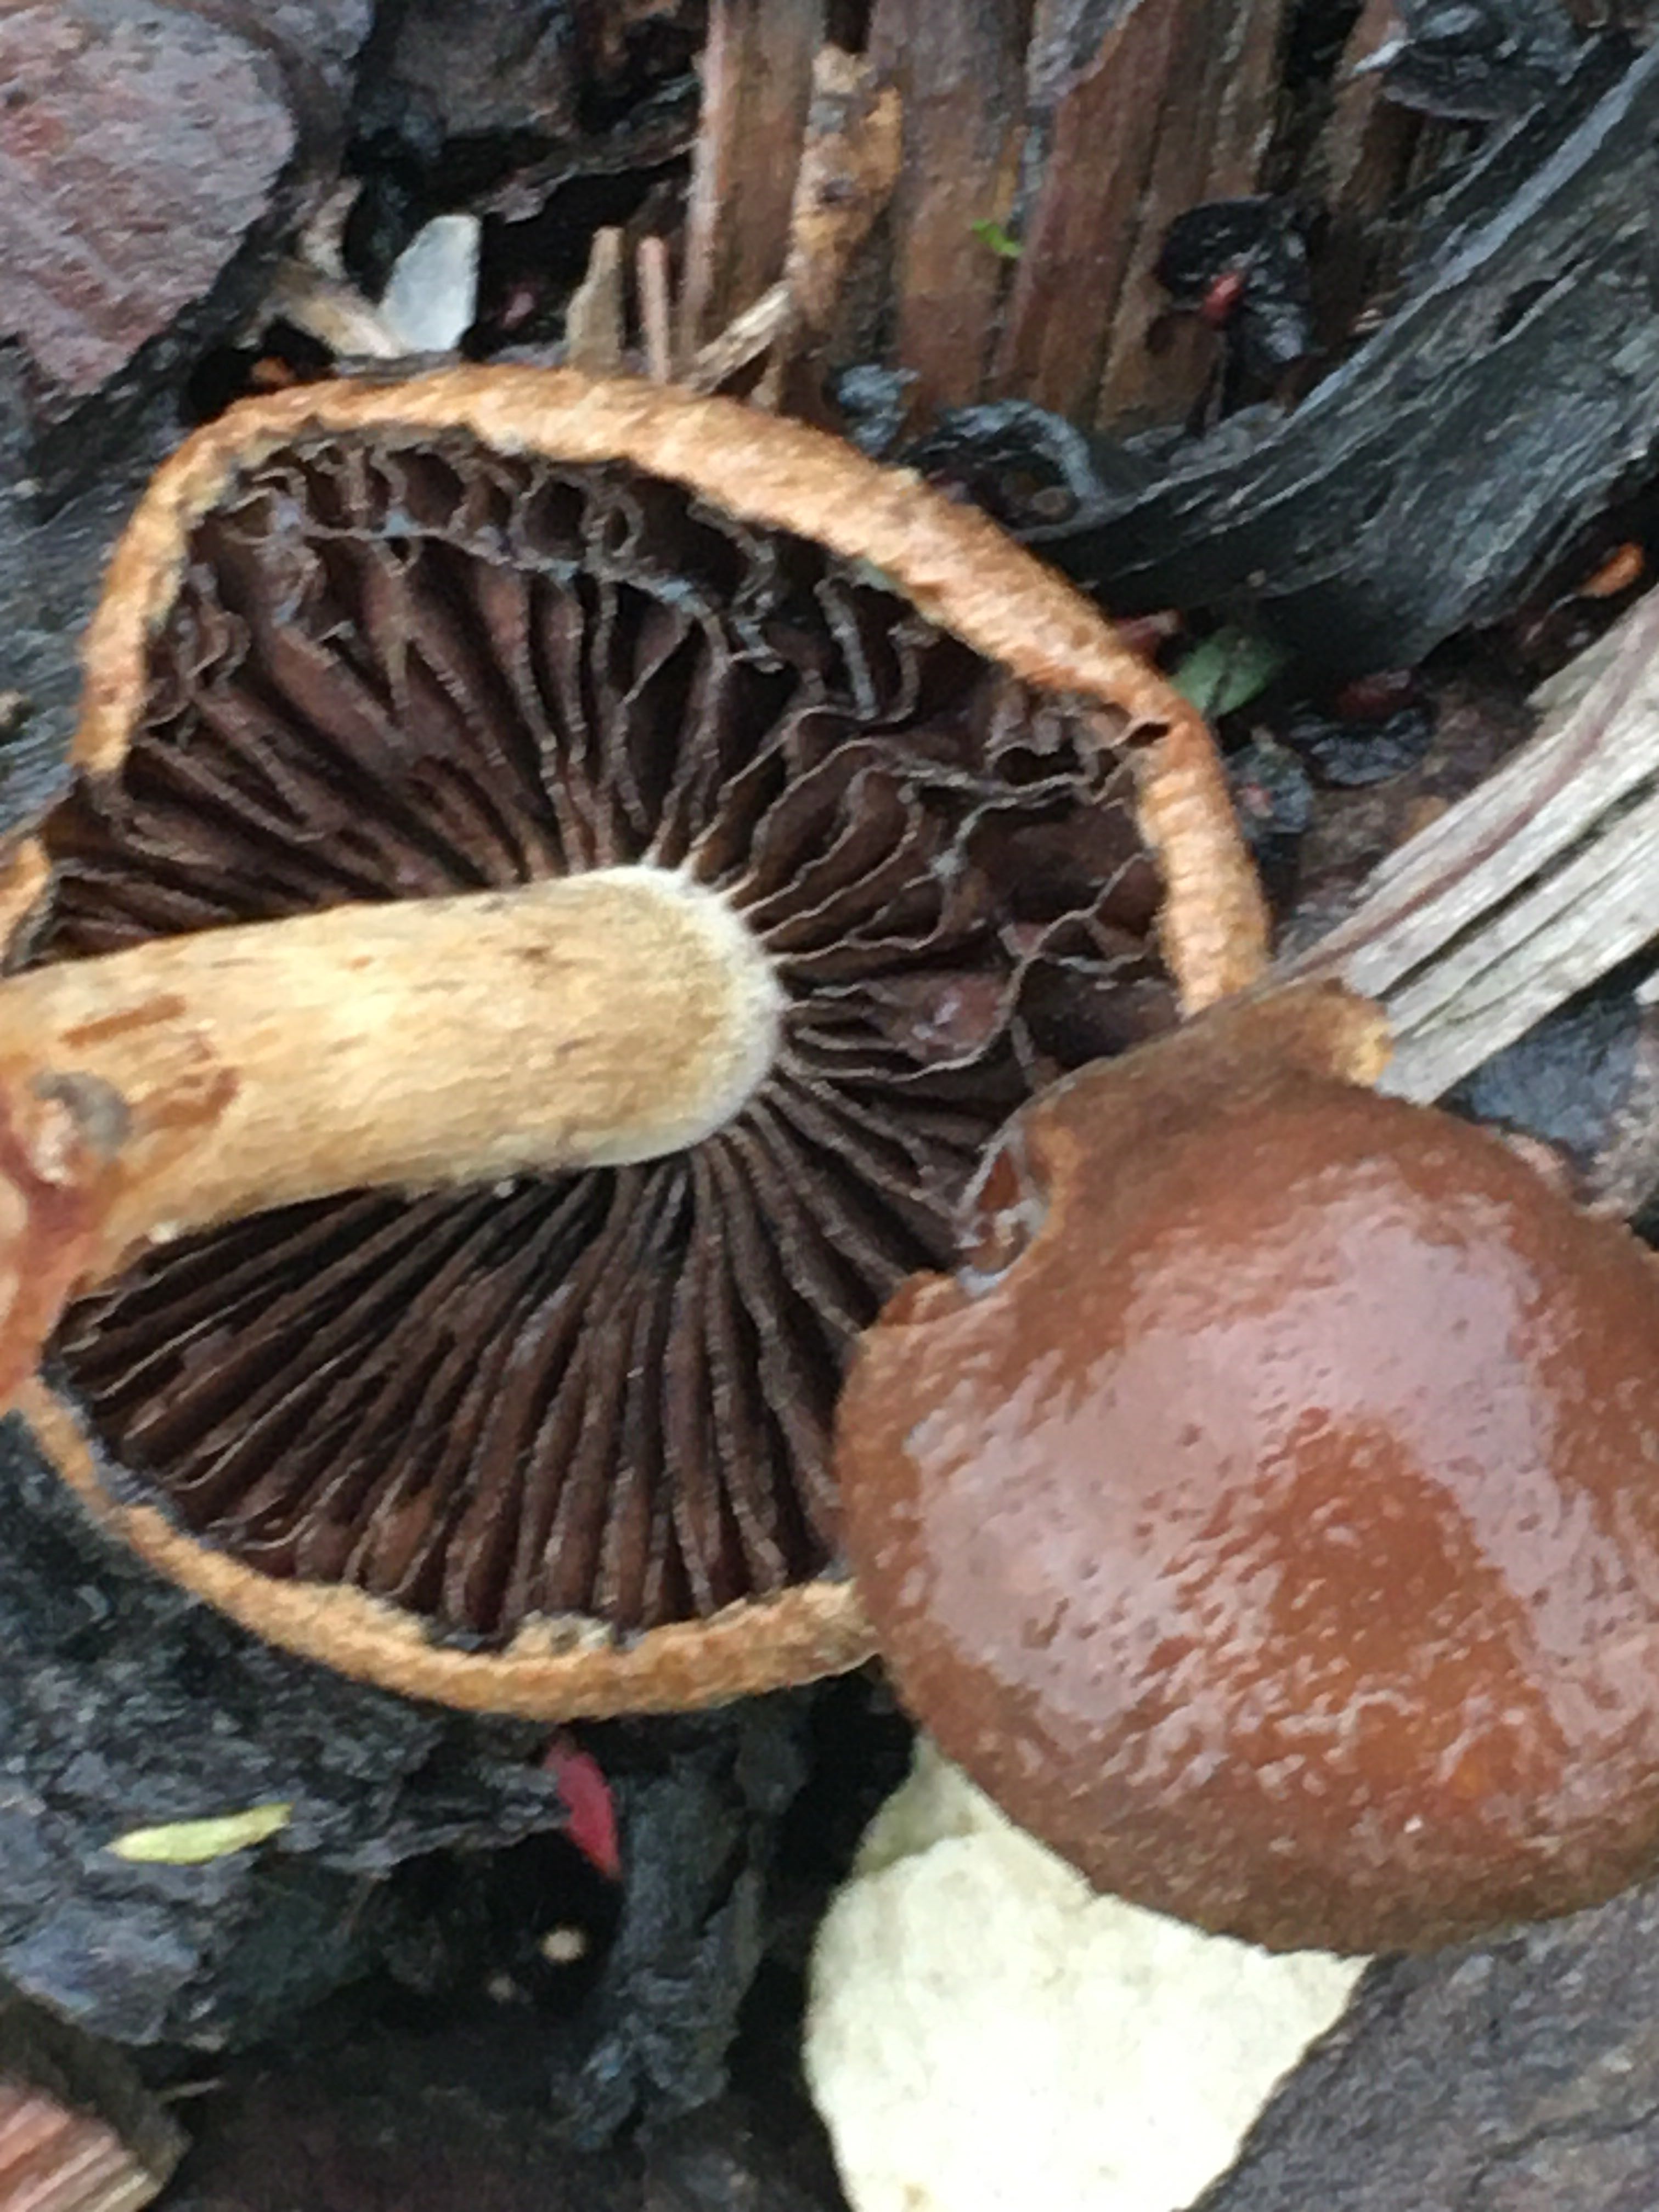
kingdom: Fungi
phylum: Basidiomycota
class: Agaricomycetes
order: Agaricales
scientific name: Agaricales
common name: champignonordenen
